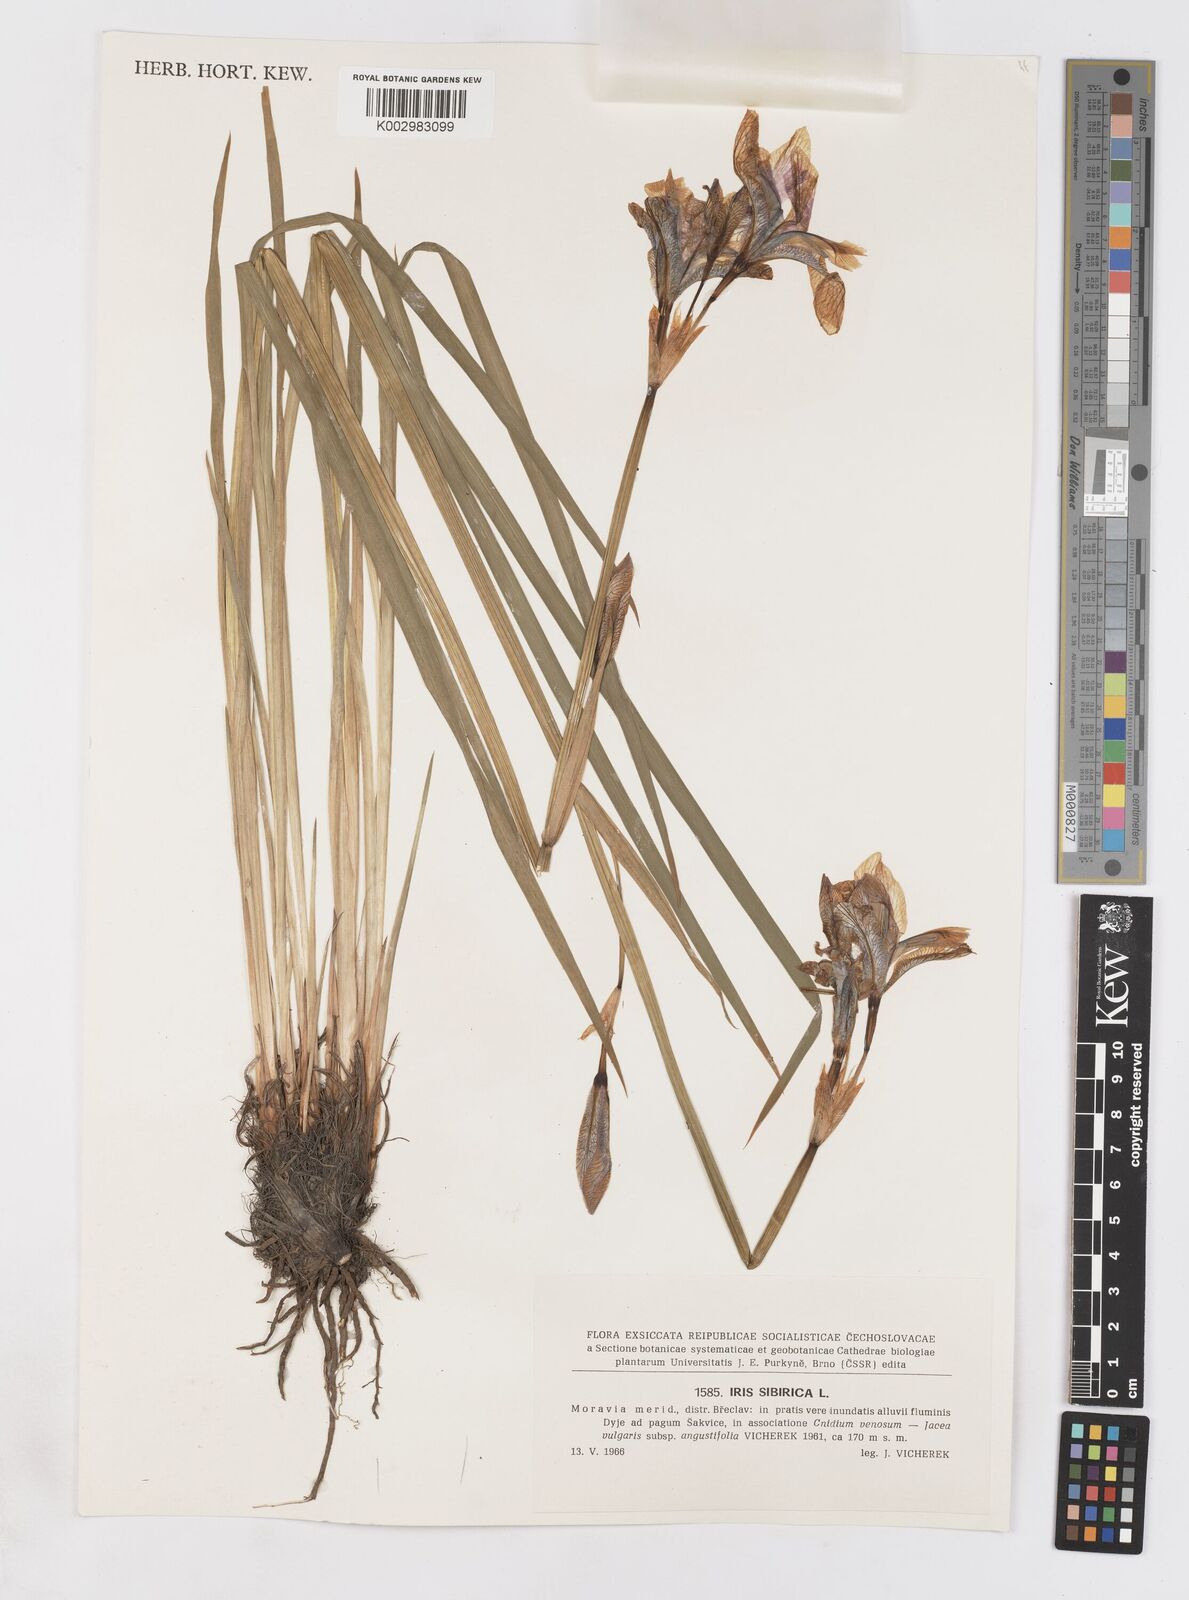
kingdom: Plantae
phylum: Tracheophyta
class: Liliopsida
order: Asparagales
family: Iridaceae
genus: Iris
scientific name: Iris sibirica
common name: Siberian iris
